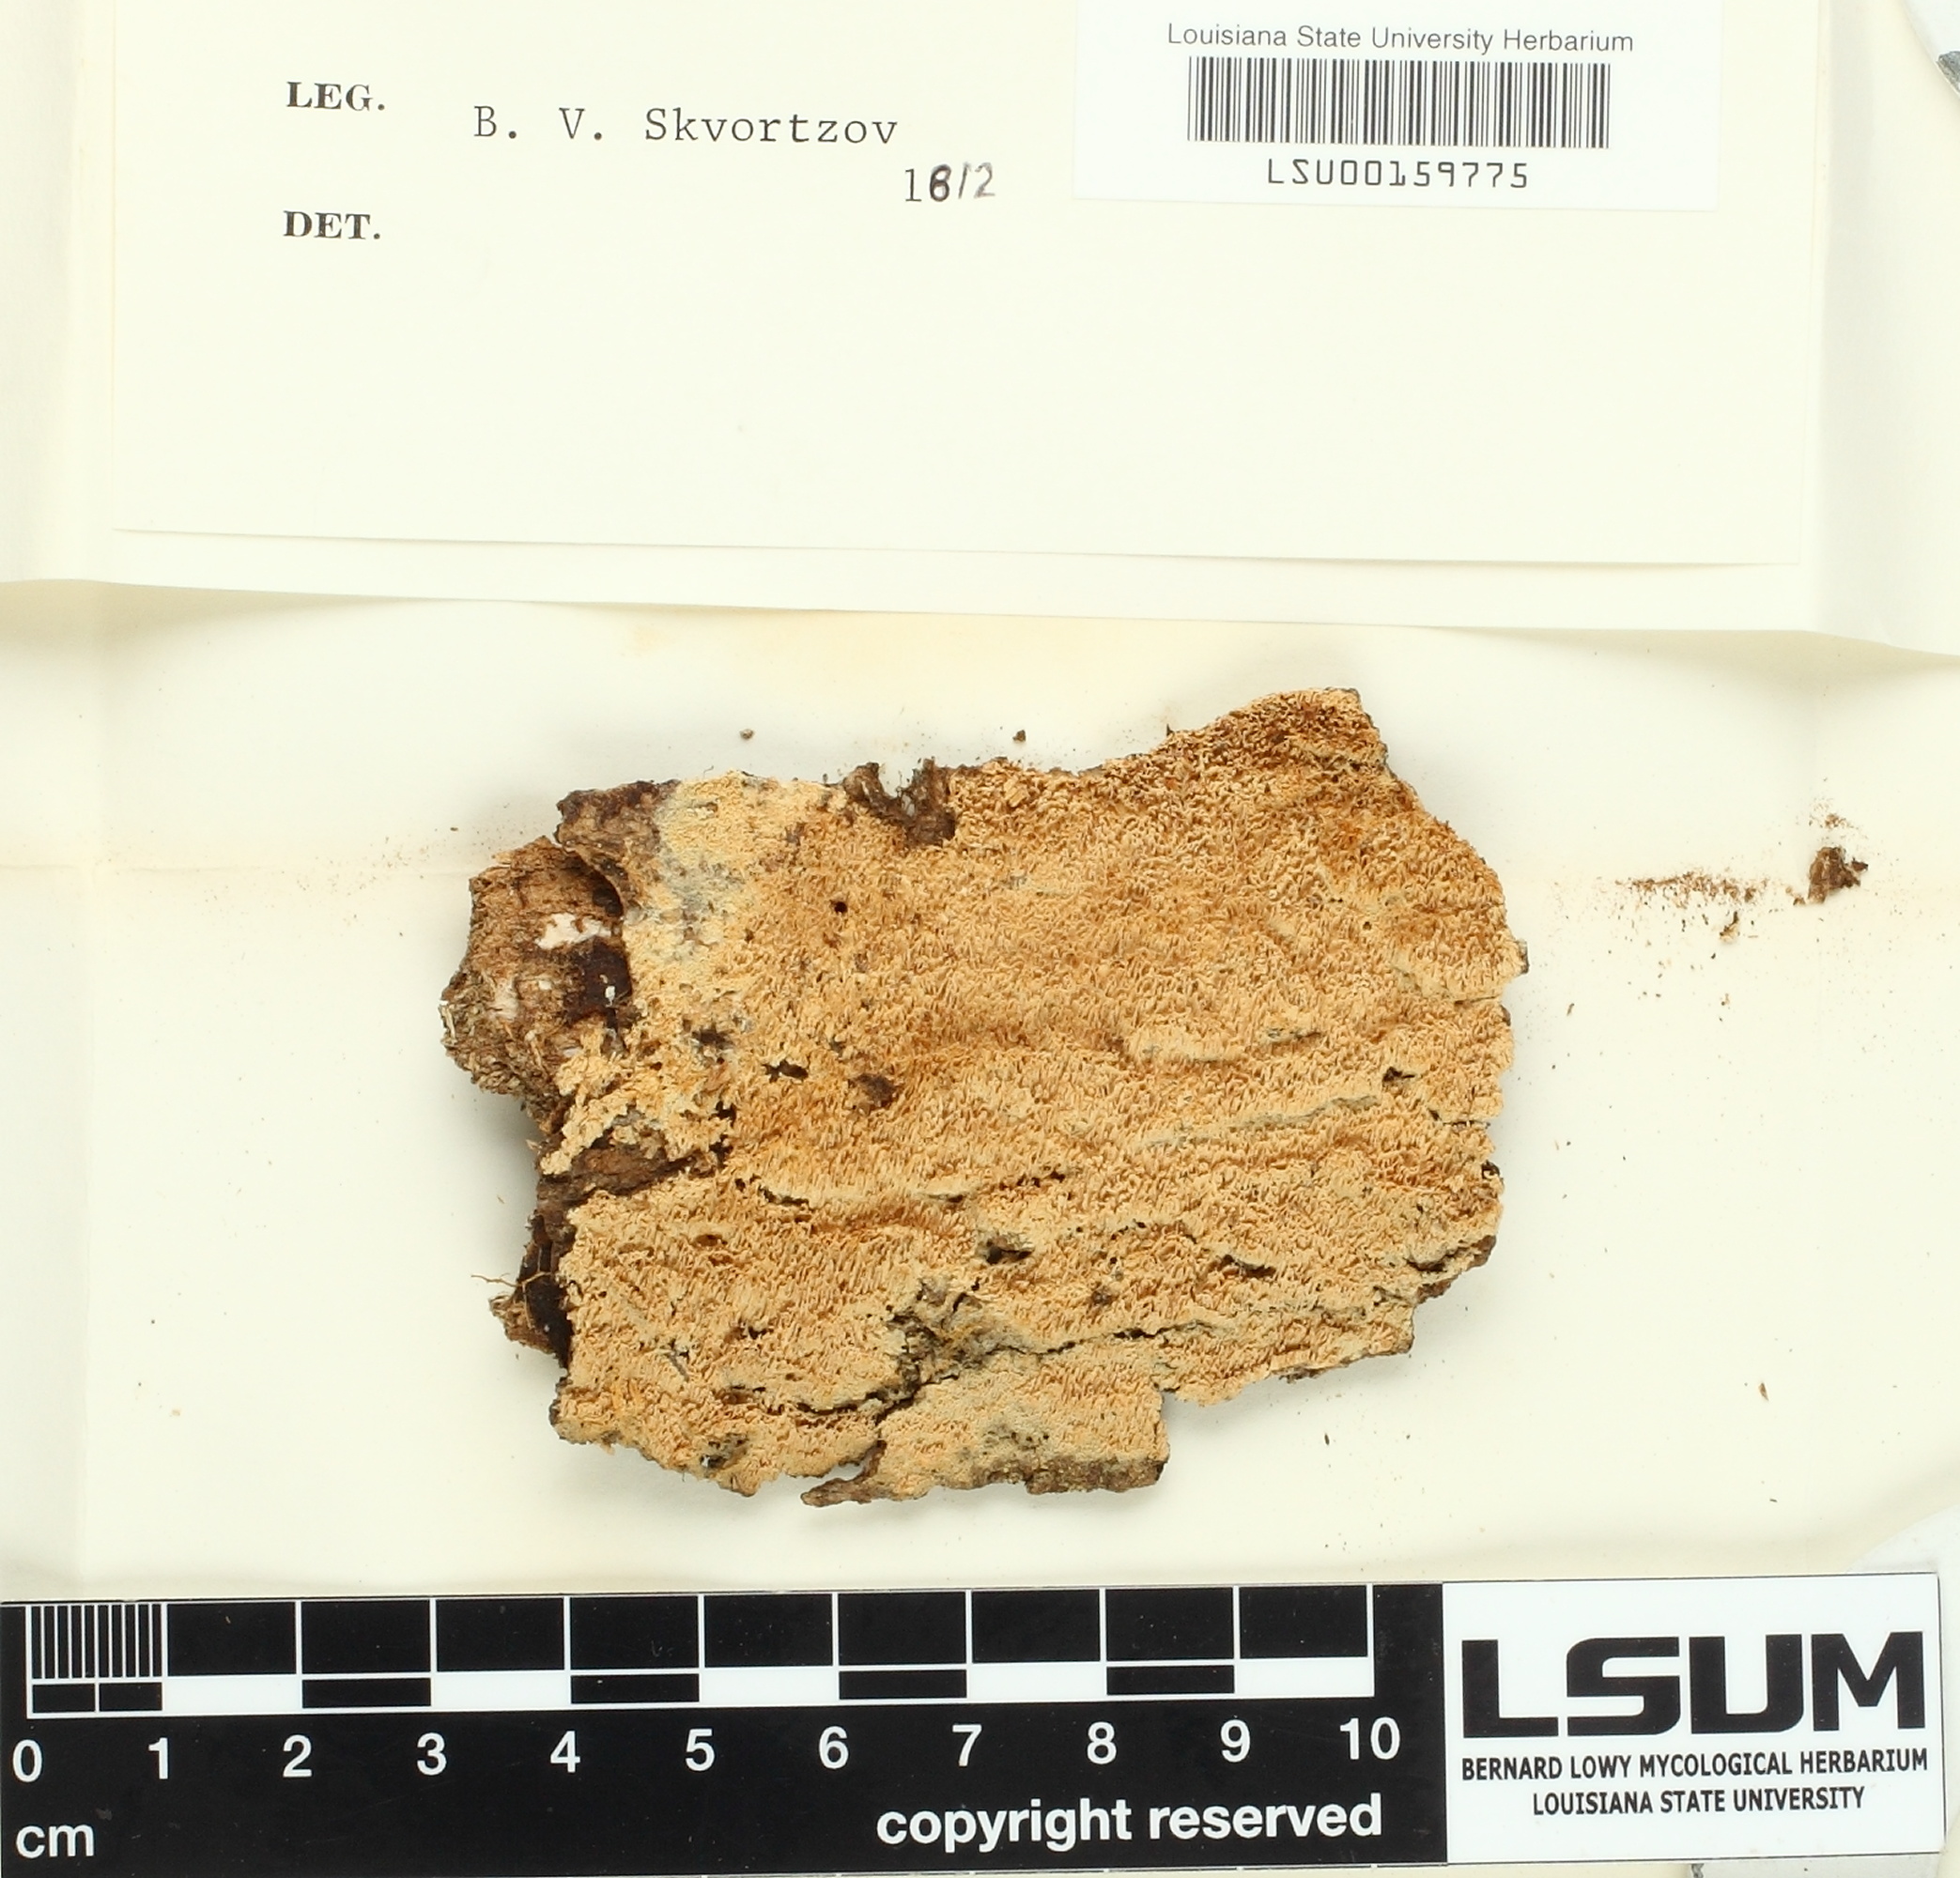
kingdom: Fungi
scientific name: Fungi
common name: Fungi
